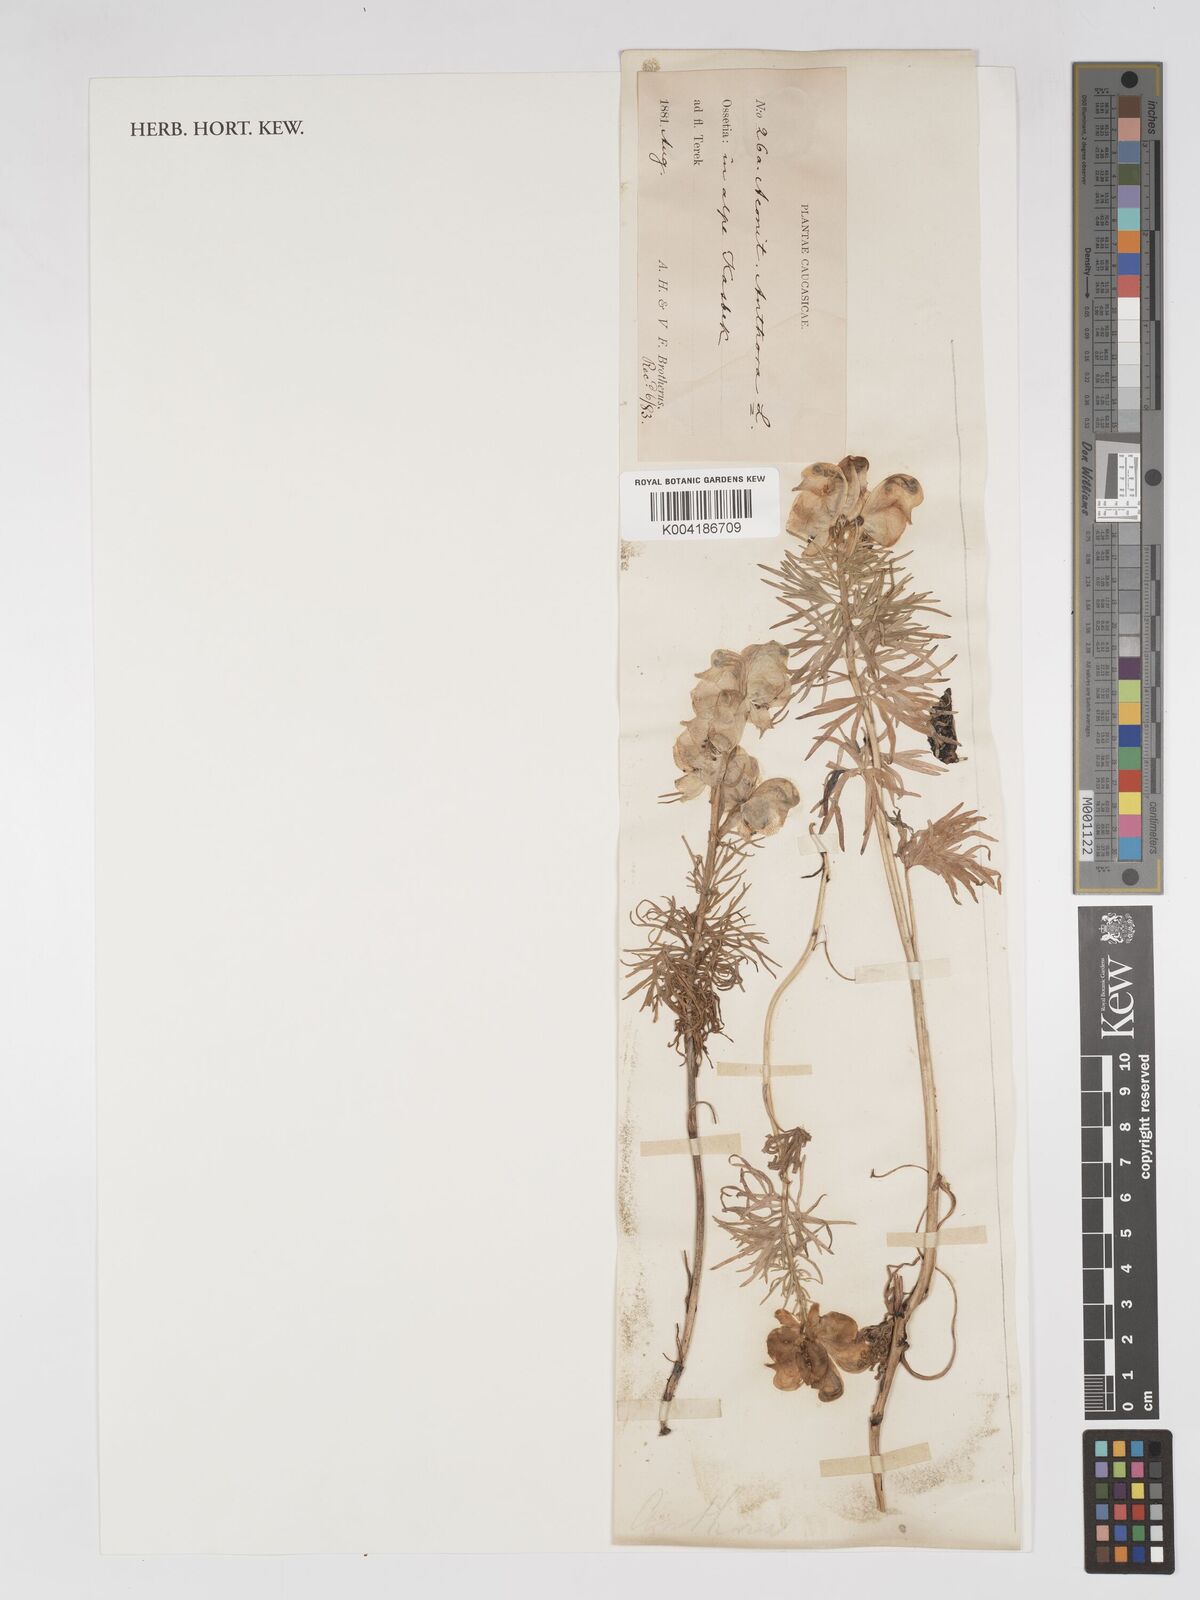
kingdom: Plantae
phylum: Tracheophyta
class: Magnoliopsida
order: Ranunculales
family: Ranunculaceae
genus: Aconitum
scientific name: Aconitum anthora
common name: Yellow monkshood
